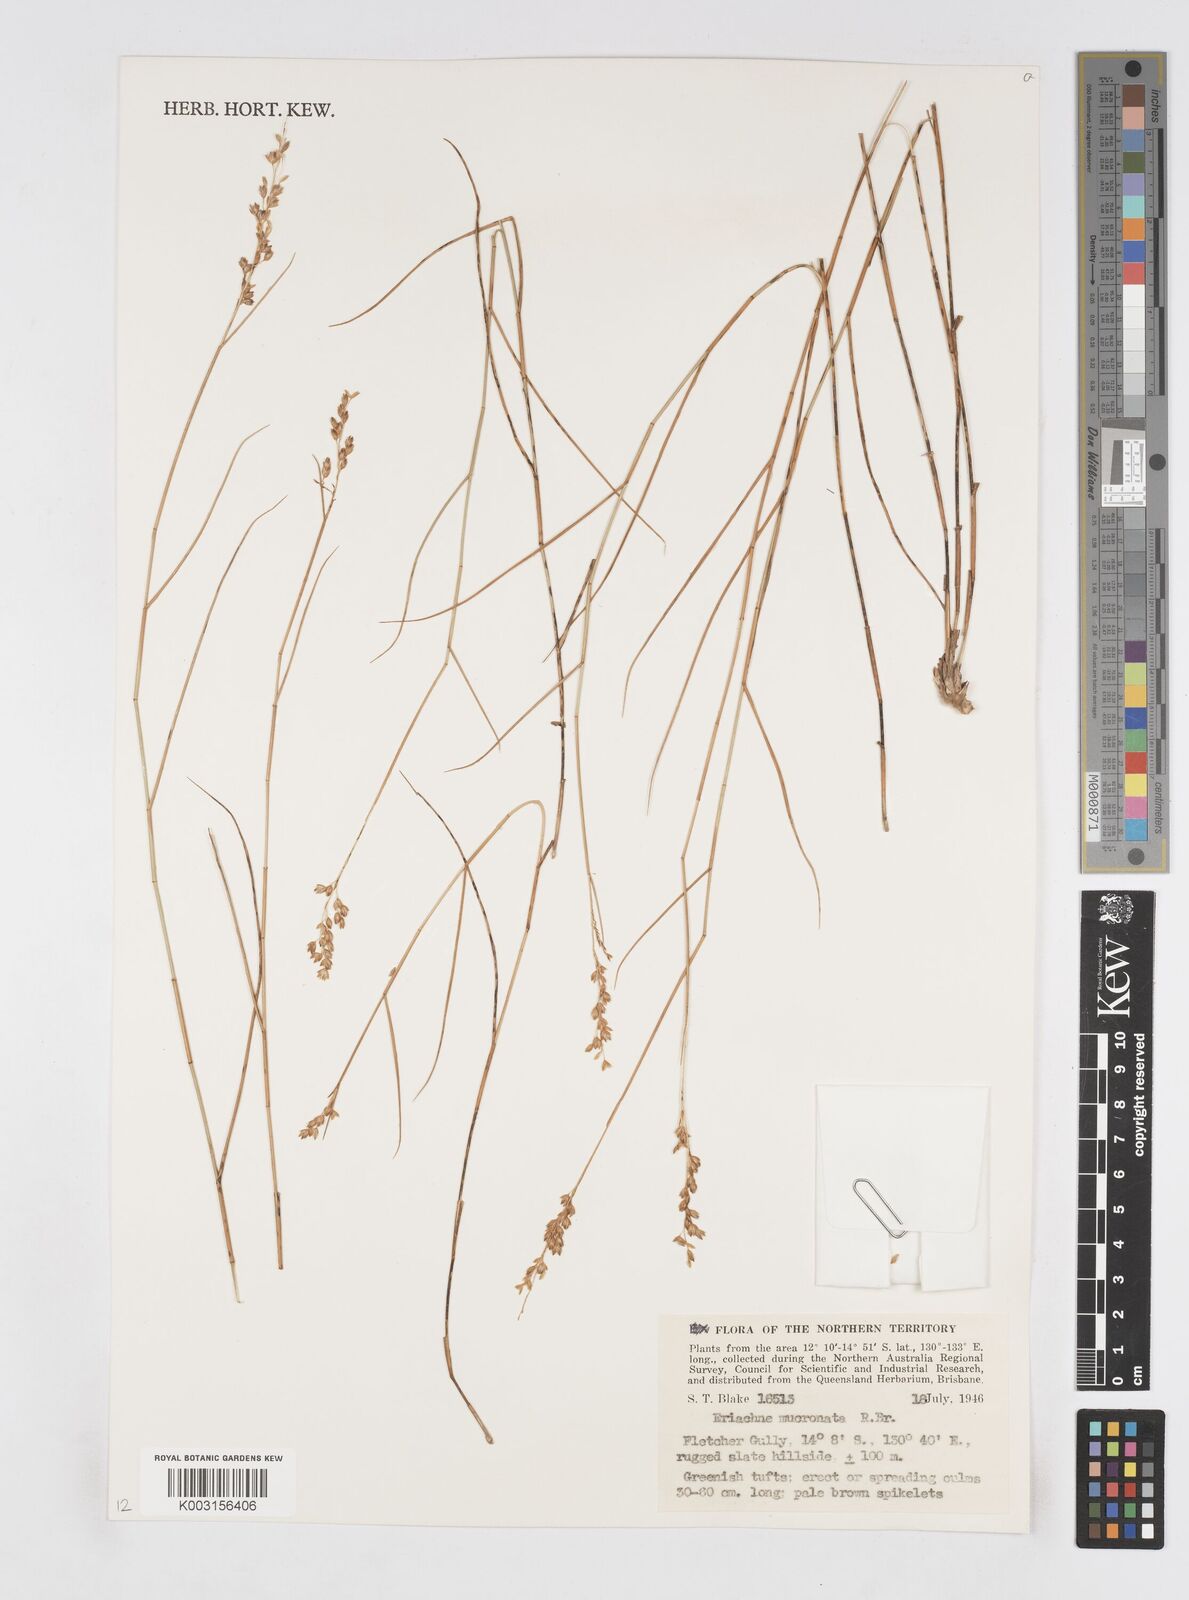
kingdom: Plantae
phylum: Tracheophyta
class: Liliopsida
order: Poales
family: Poaceae
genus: Eriachne
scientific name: Eriachne mucronata
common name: Mountain wanderrie grass
